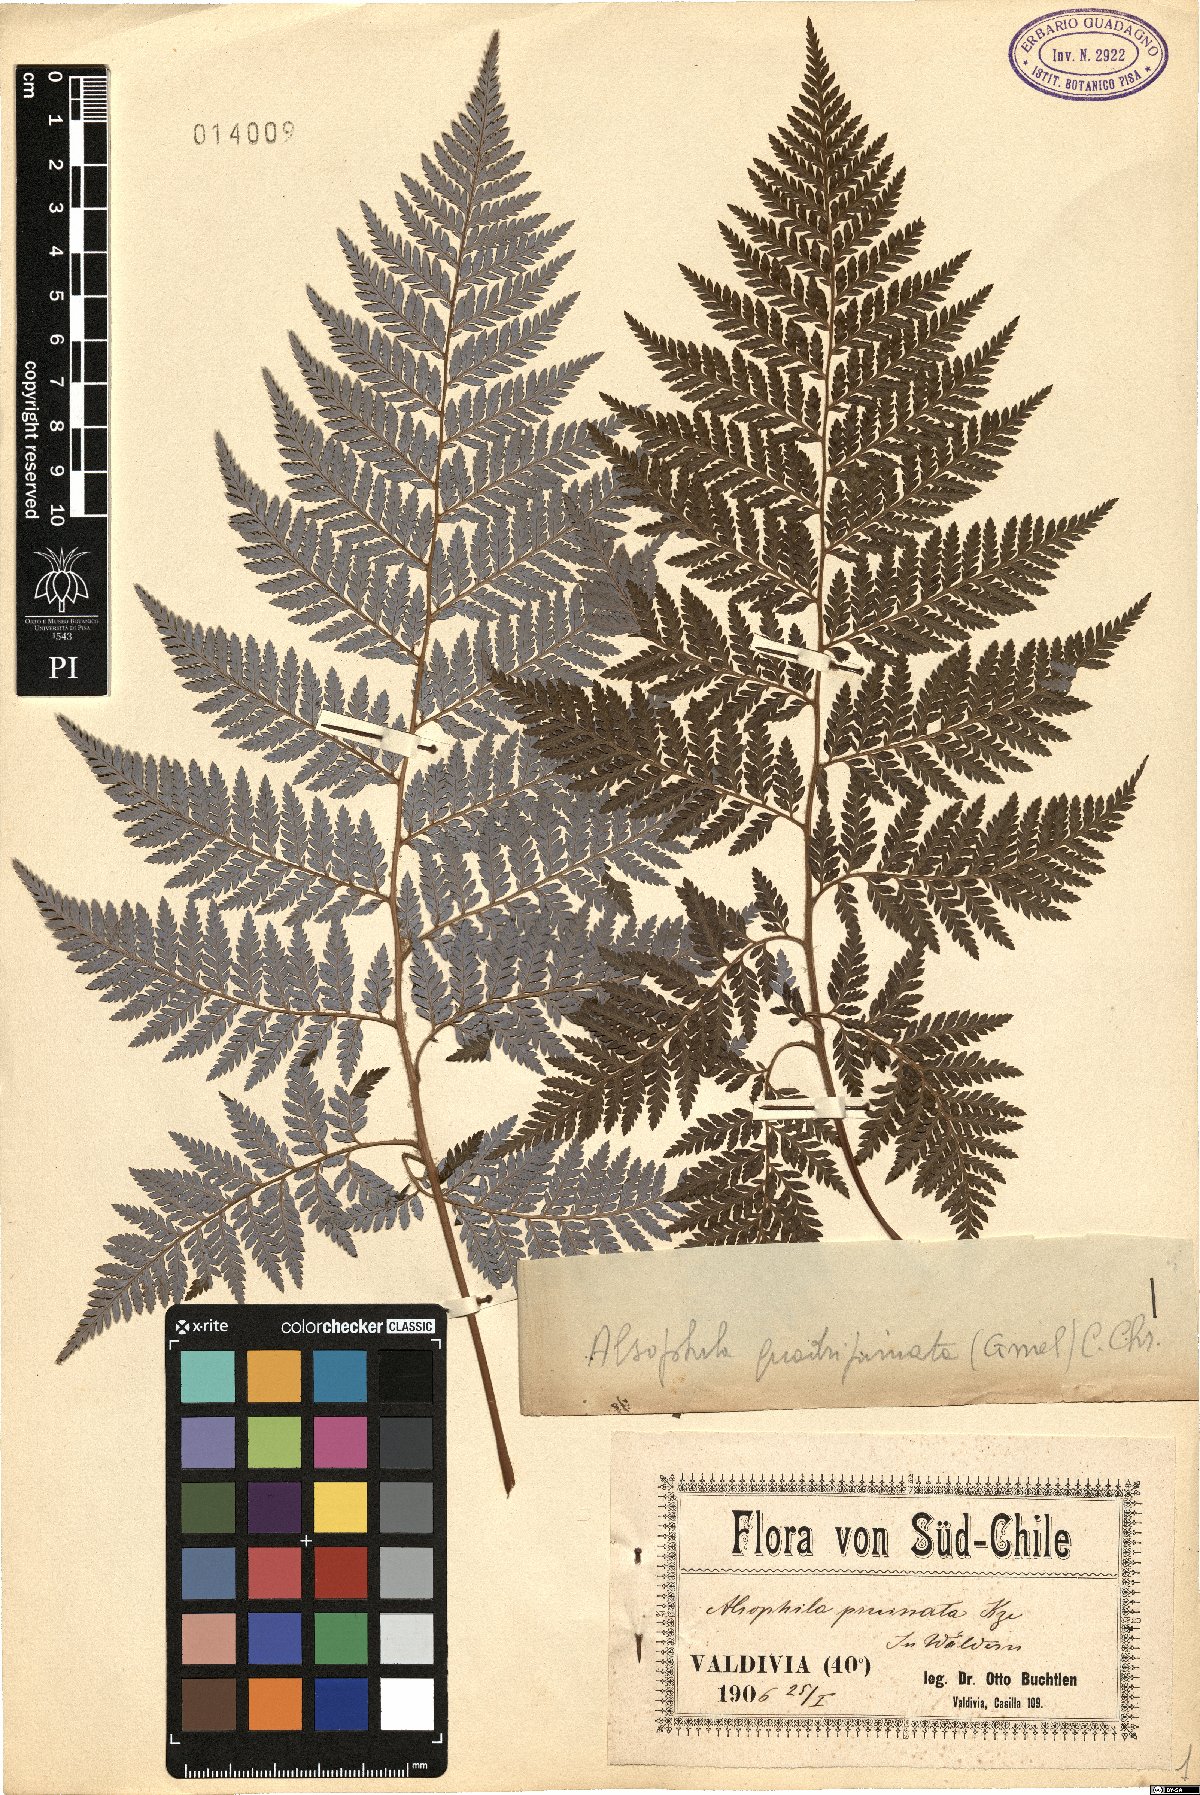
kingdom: Plantae
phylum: Tracheophyta
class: Polypodiopsida
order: Cyatheales
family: Dicksoniaceae
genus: Lophosoria
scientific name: Lophosoria quadripinnata
